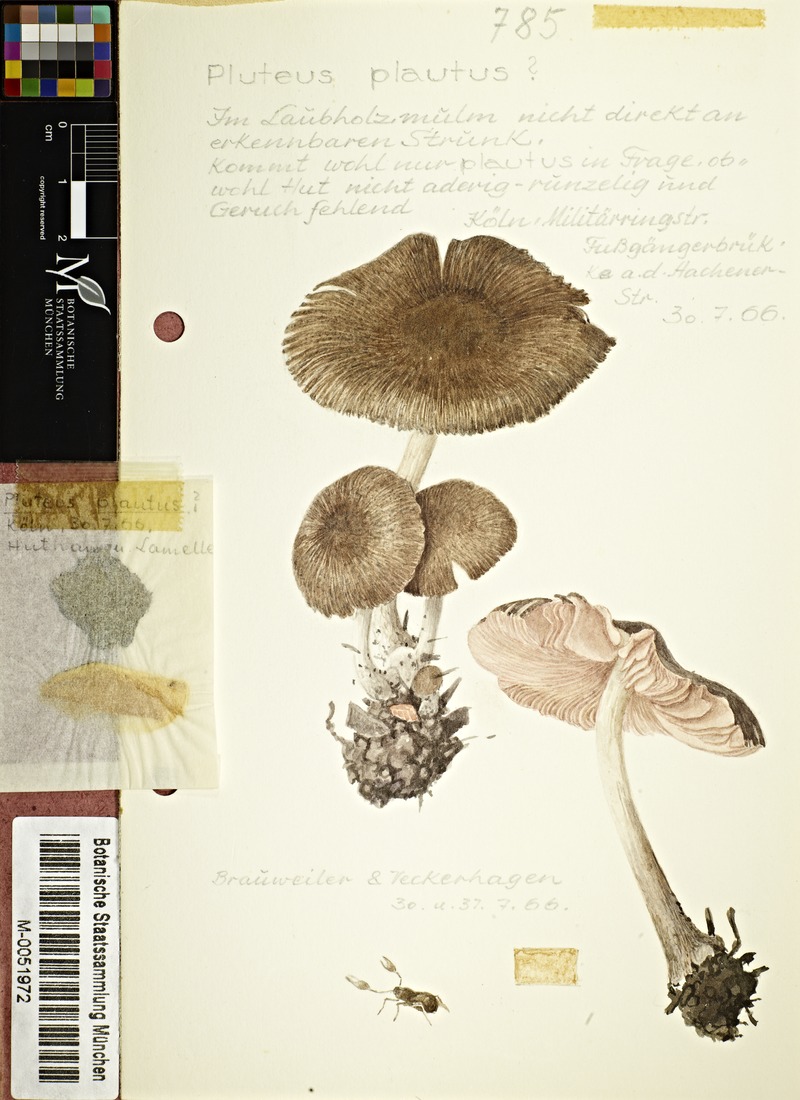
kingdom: Fungi
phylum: Basidiomycota
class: Agaricomycetes
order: Agaricales
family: Pluteaceae
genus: Pluteus
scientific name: Pluteus plautus
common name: Satin shield
